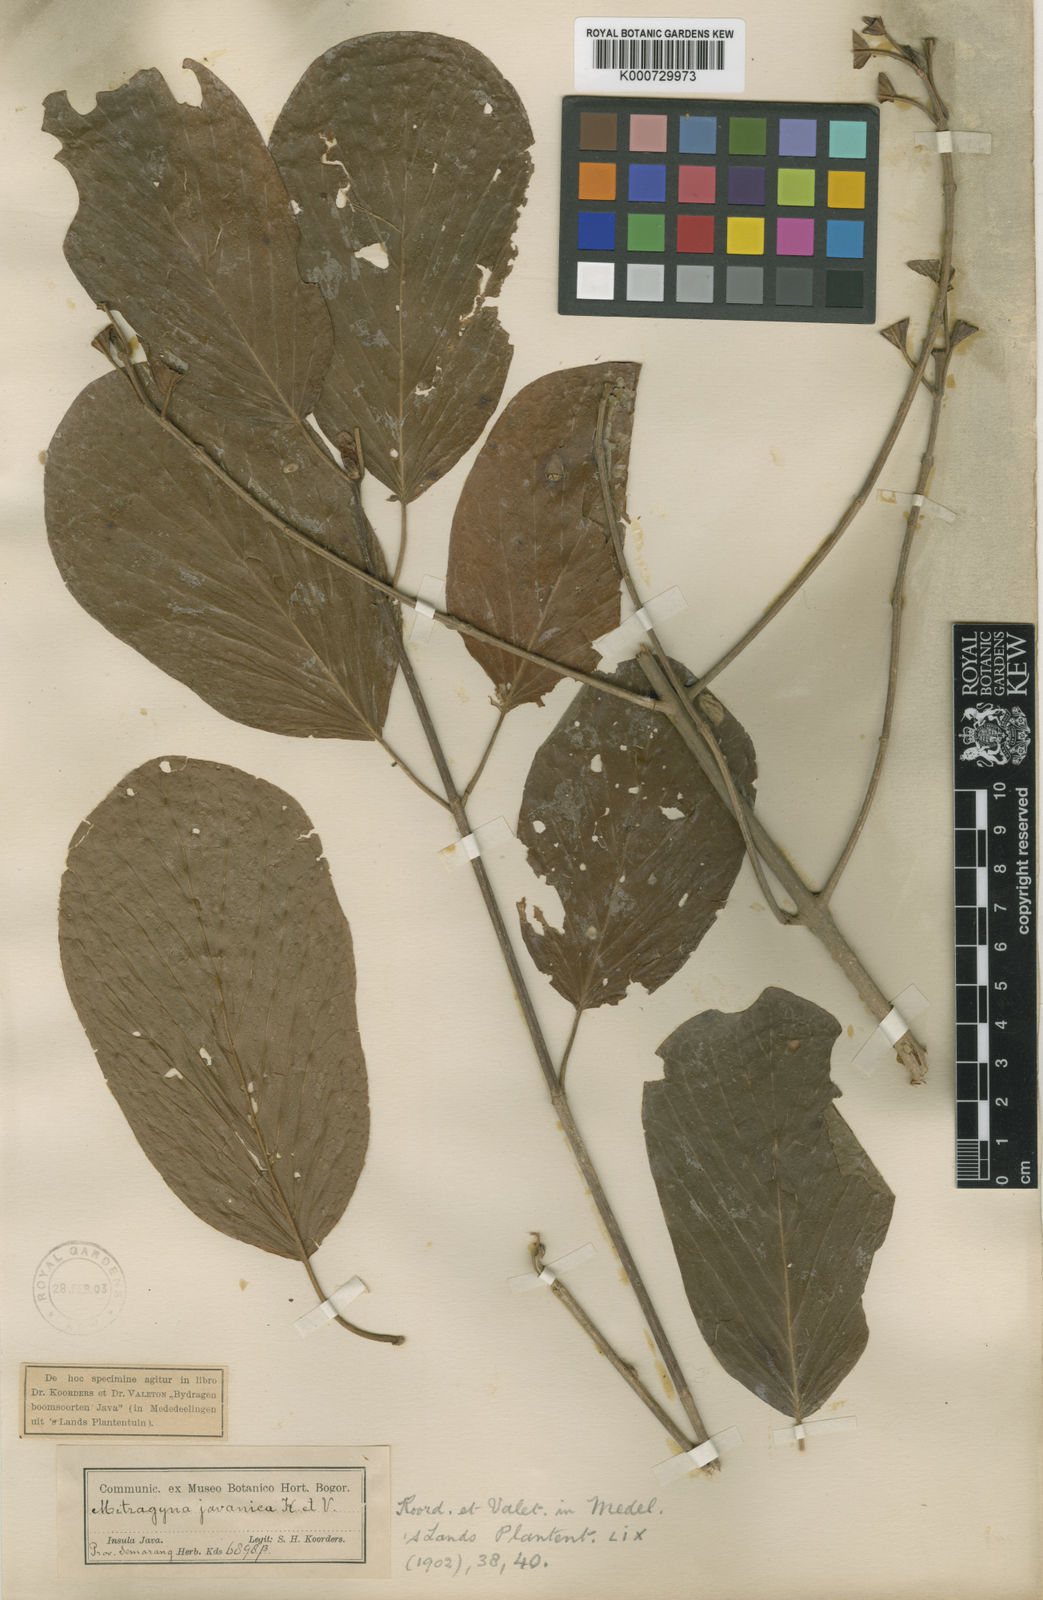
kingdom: Plantae
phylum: Tracheophyta
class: Magnoliopsida
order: Gentianales
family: Rubiaceae
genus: Mitragyna
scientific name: Mitragyna
